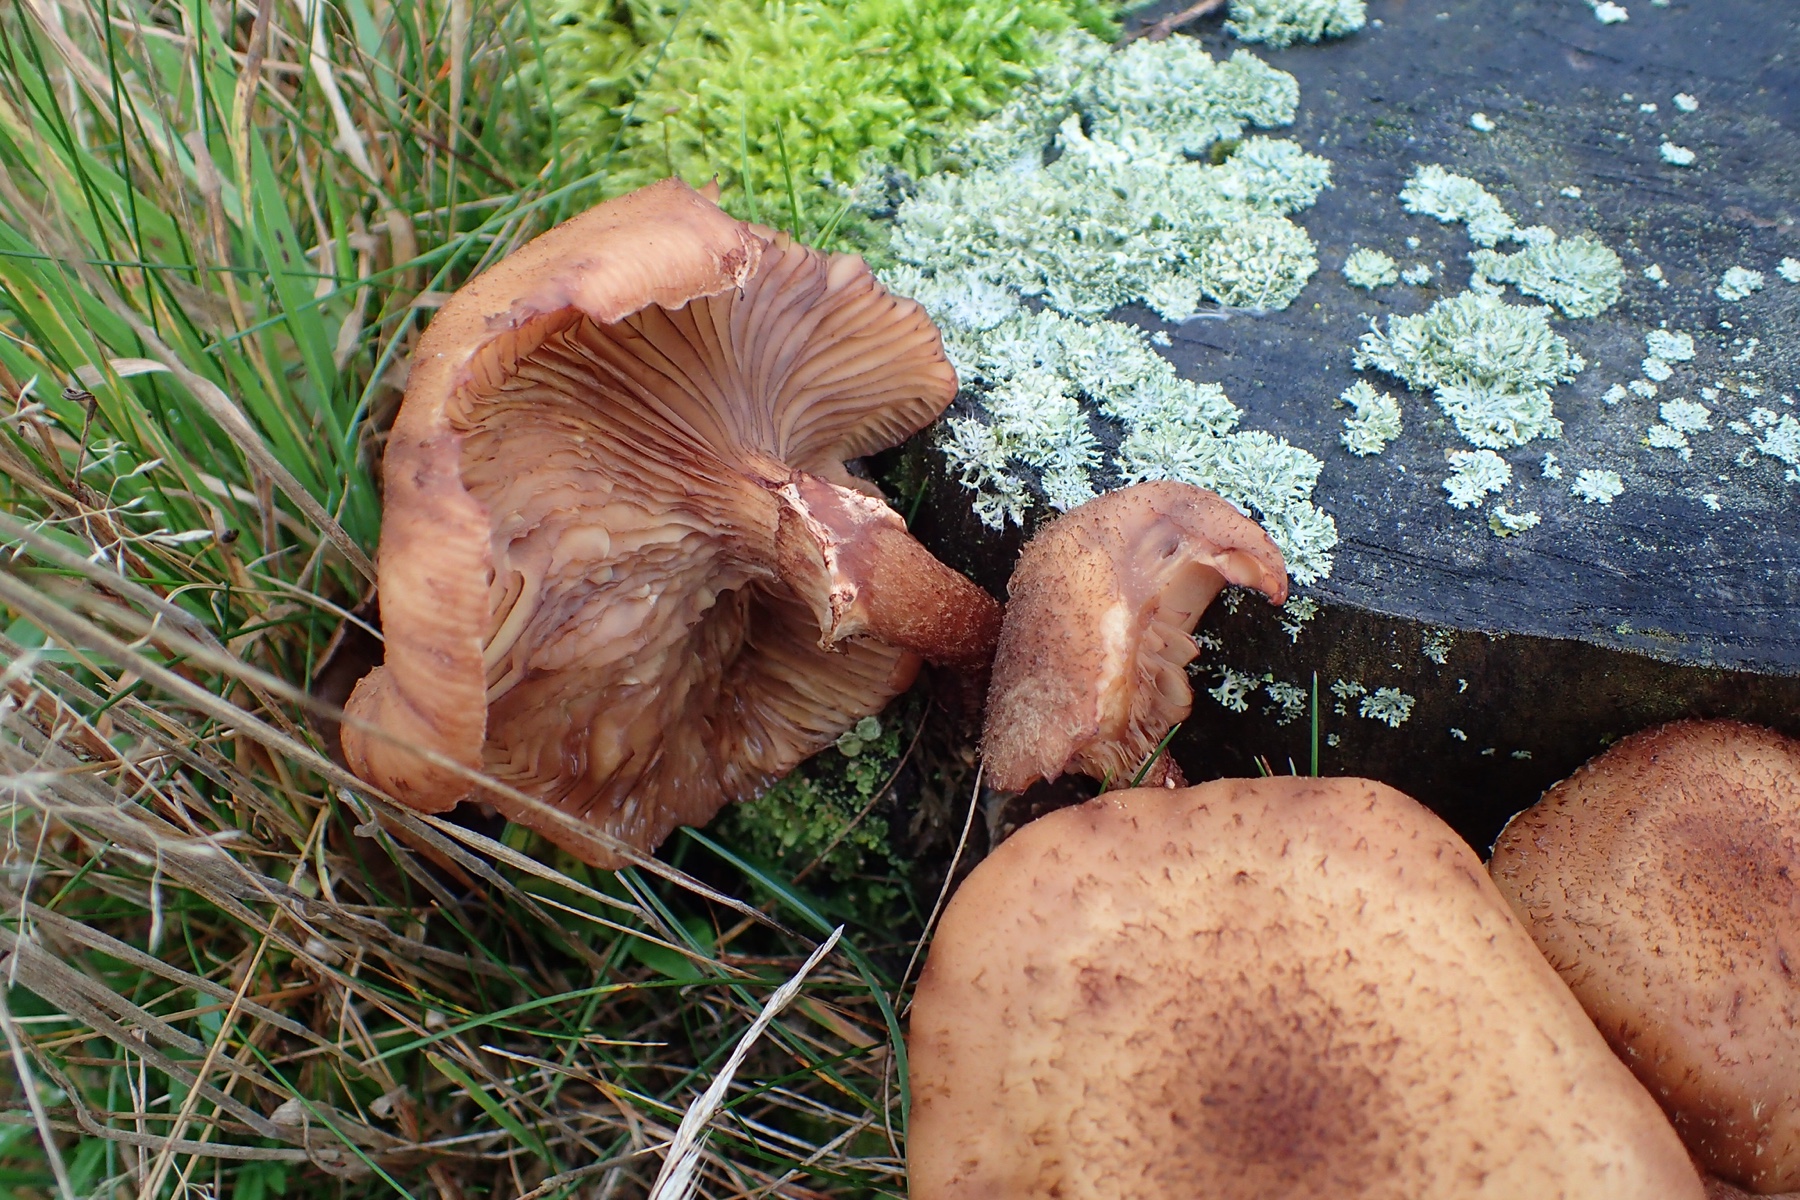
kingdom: Fungi
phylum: Basidiomycota
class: Agaricomycetes
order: Agaricales
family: Physalacriaceae
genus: Armillaria
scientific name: Armillaria
